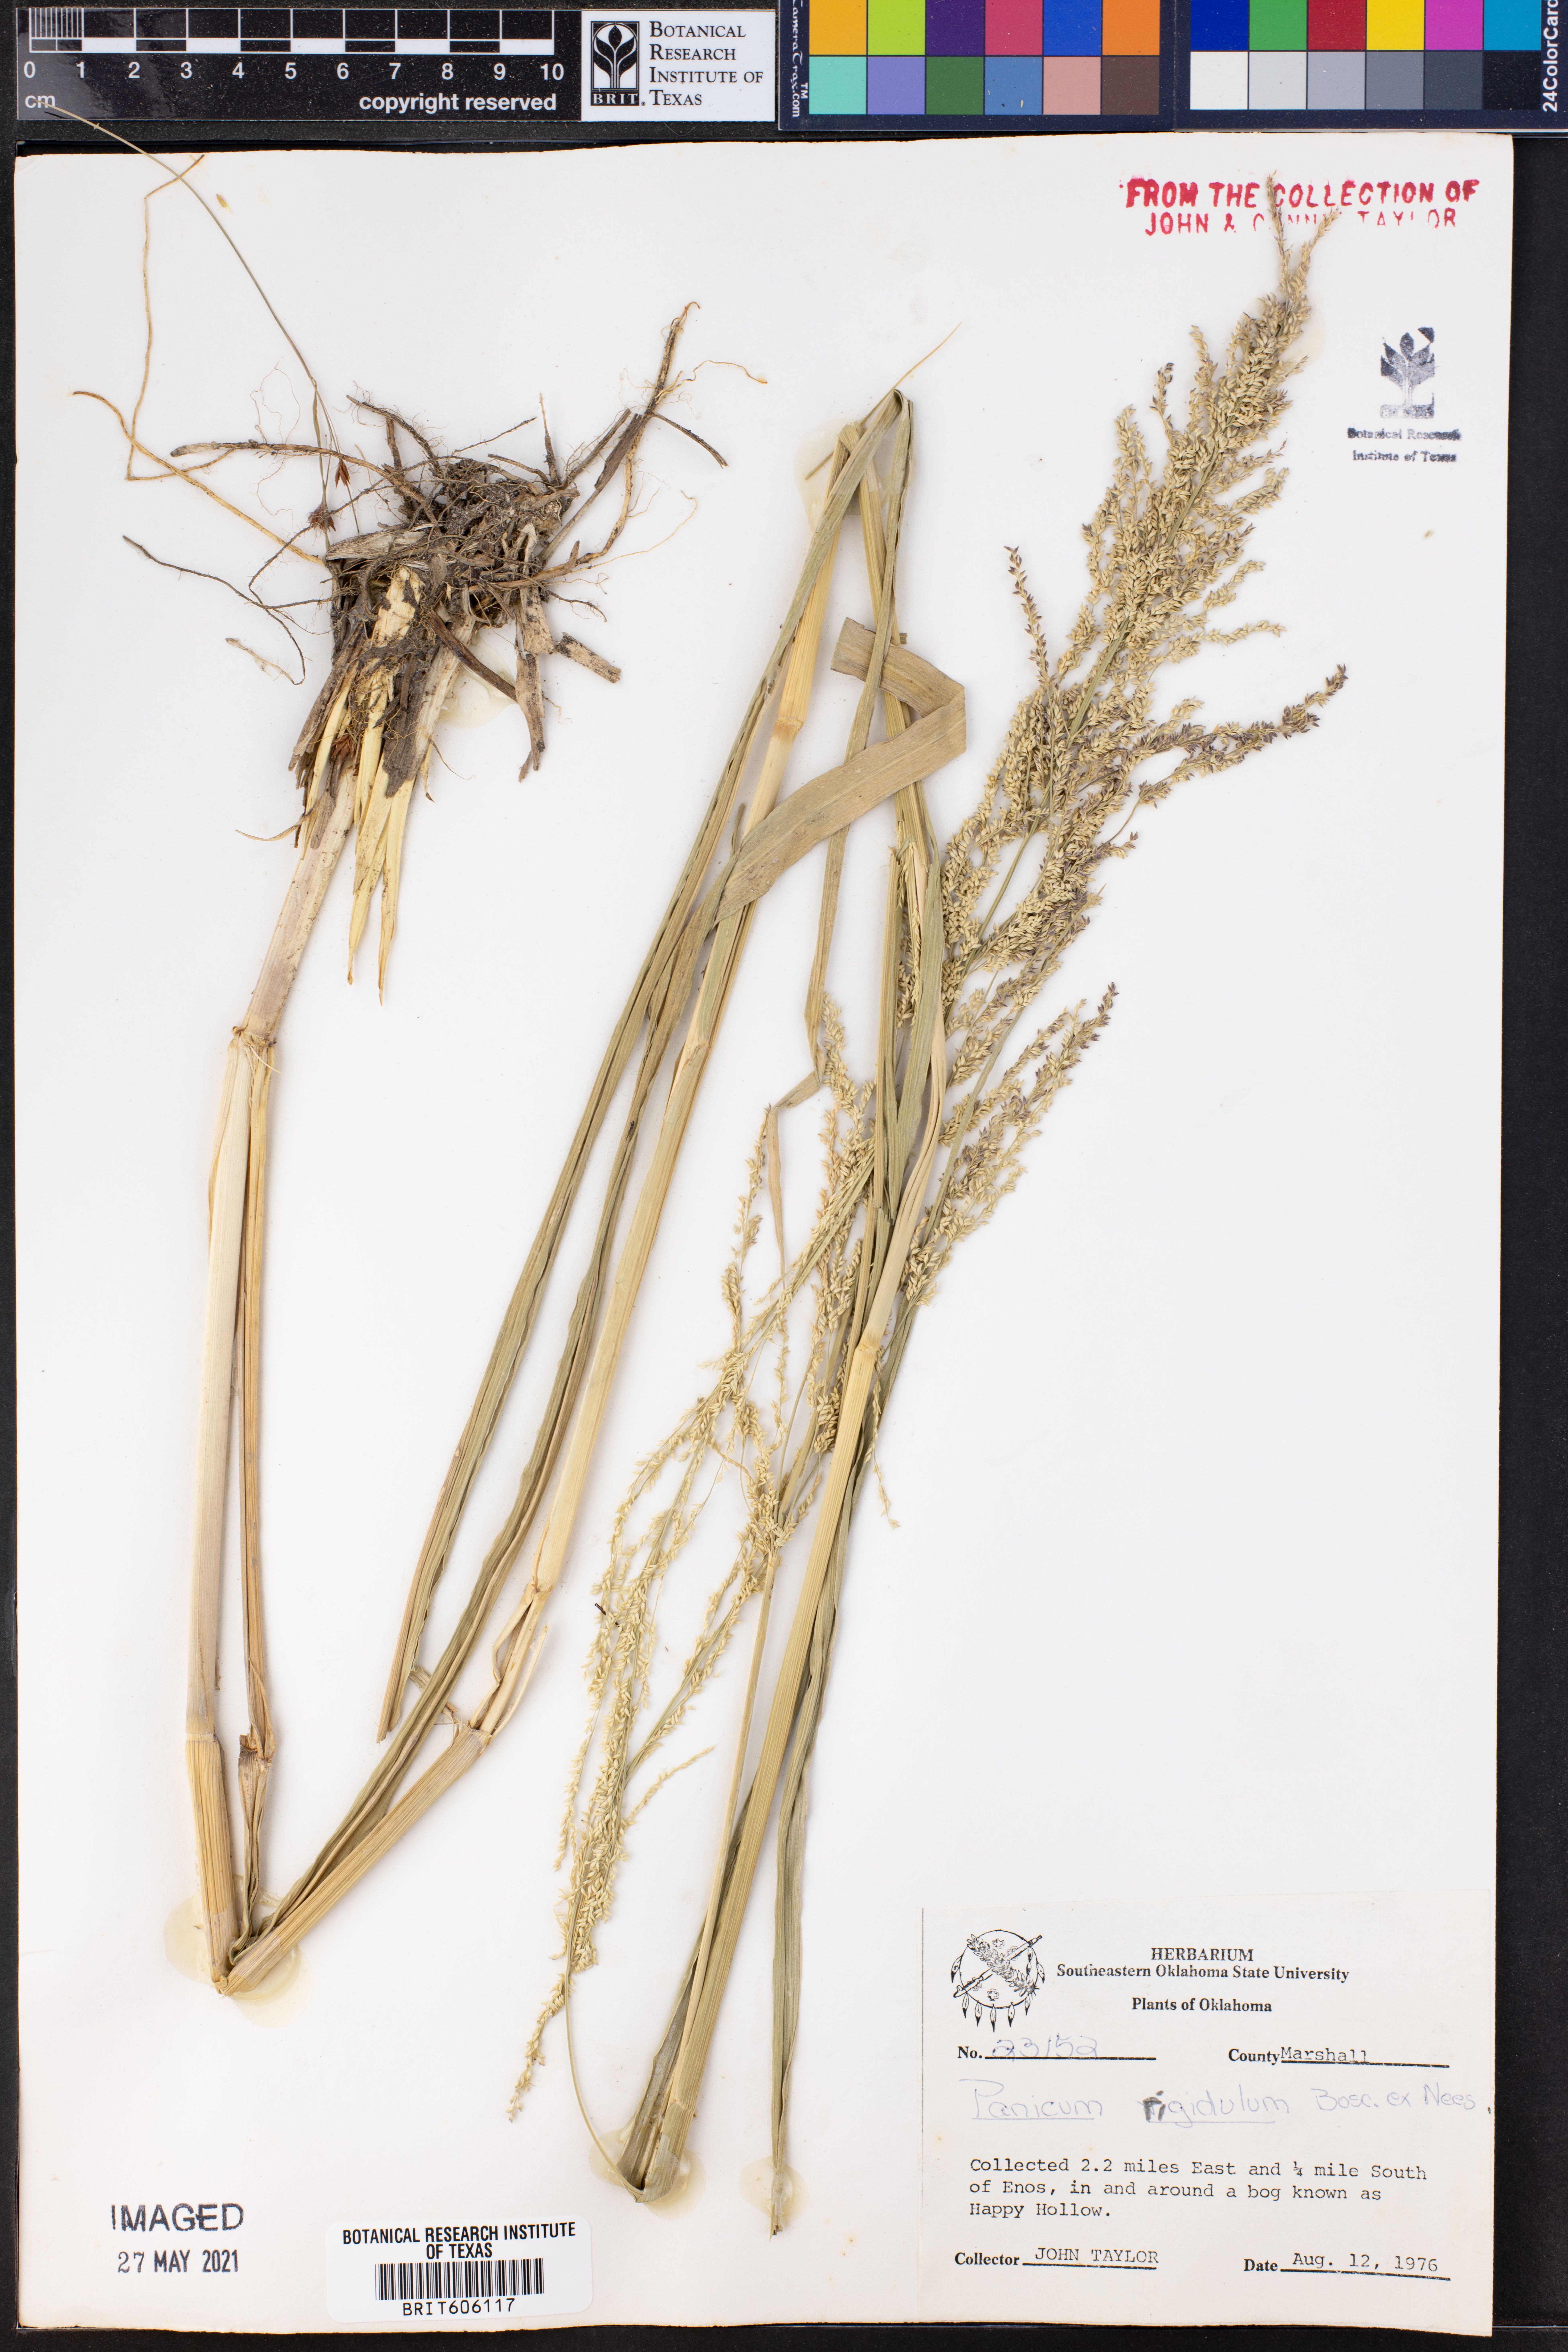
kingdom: Plantae
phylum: Tracheophyta
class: Liliopsida
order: Poales
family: Poaceae
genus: Coleataenia
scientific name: Coleataenia rigidula
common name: Redtop panicgrass
